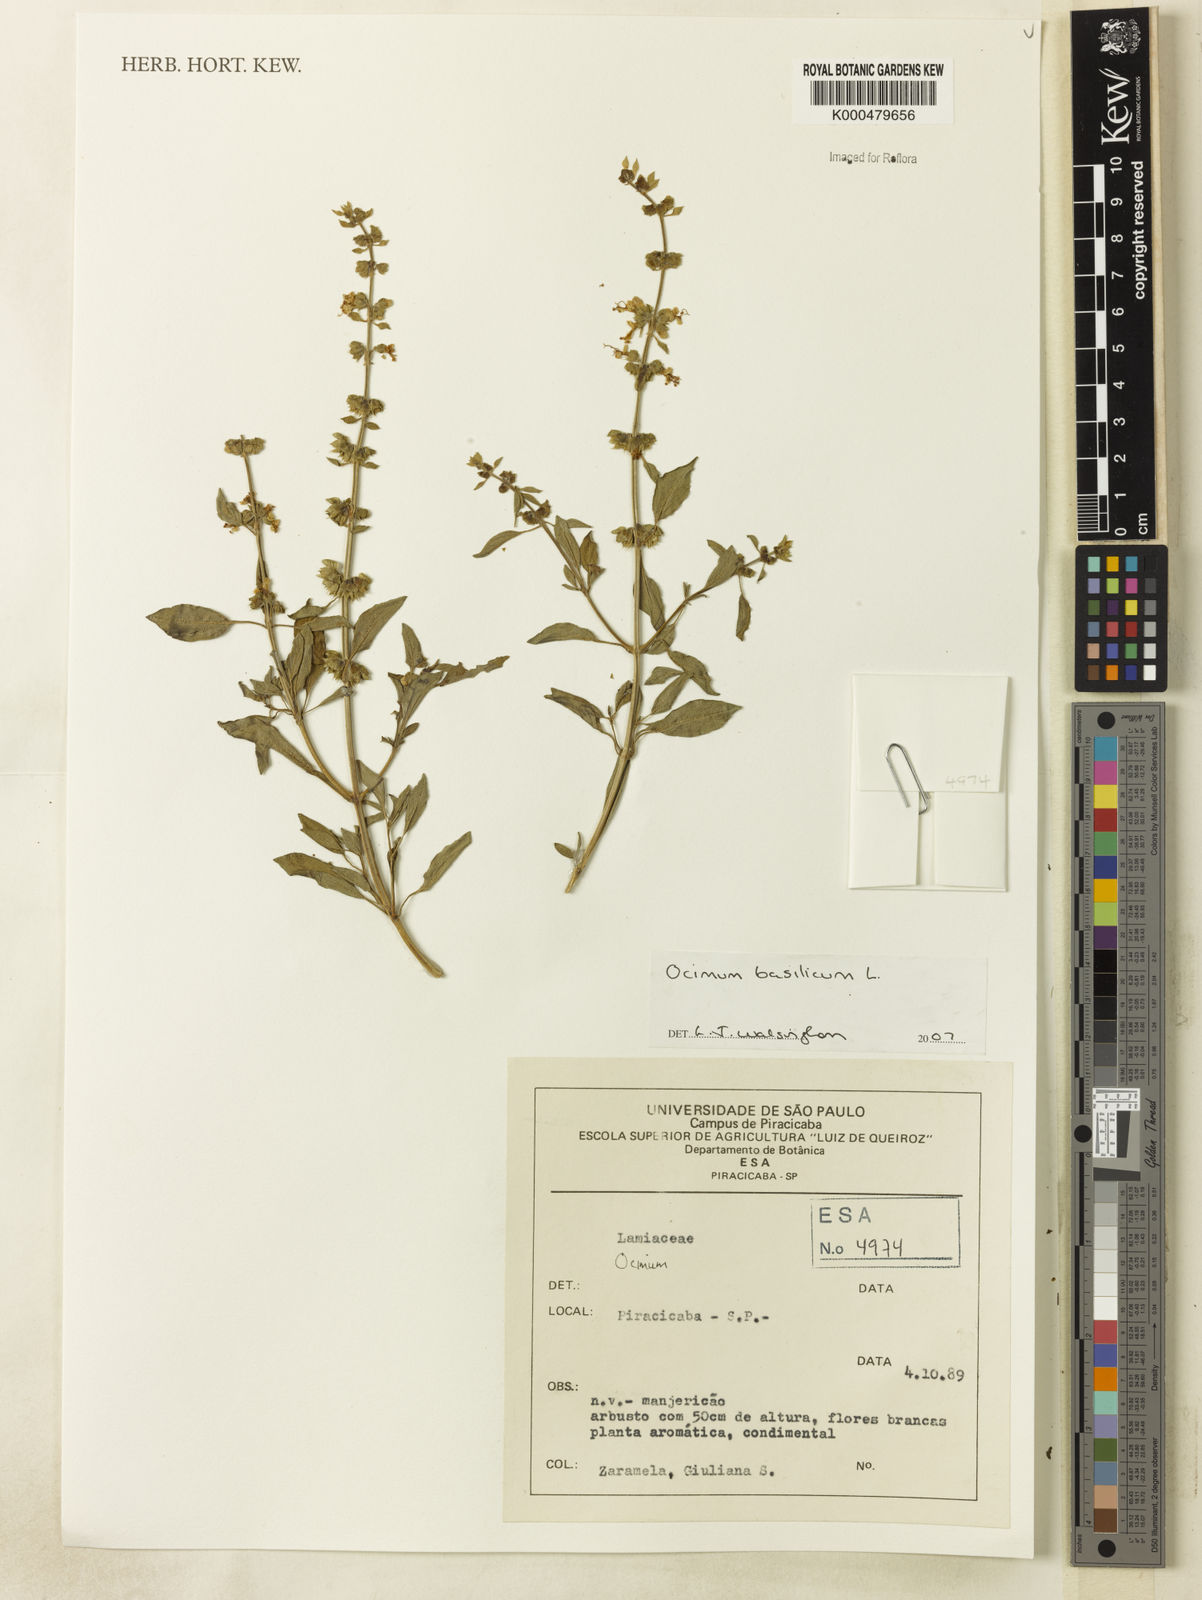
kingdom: Plantae
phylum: Tracheophyta
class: Magnoliopsida
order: Lamiales
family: Lamiaceae
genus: Ocimum
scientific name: Ocimum basilicum
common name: Sweet basil
